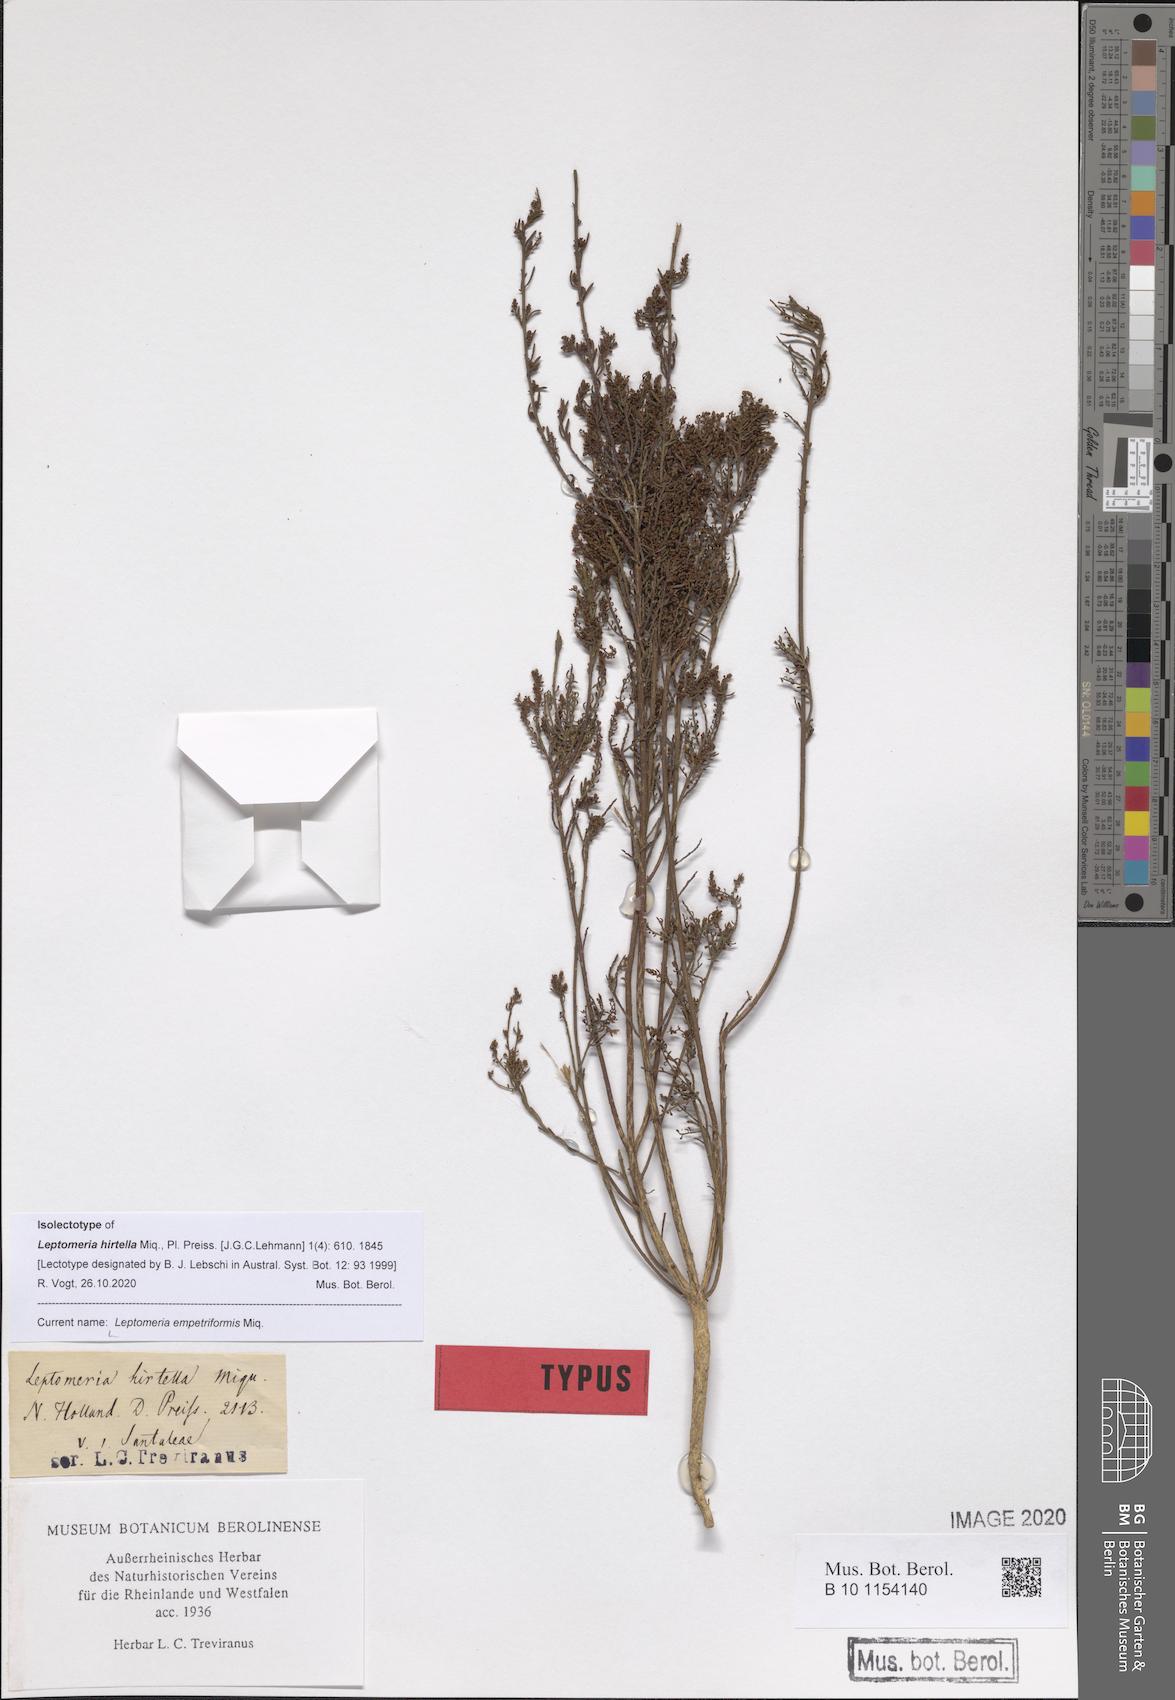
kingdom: Plantae
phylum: Tracheophyta
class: Magnoliopsida
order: Santalales
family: Amphorogynaceae
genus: Leptomeria
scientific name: Leptomeria empetriformis
